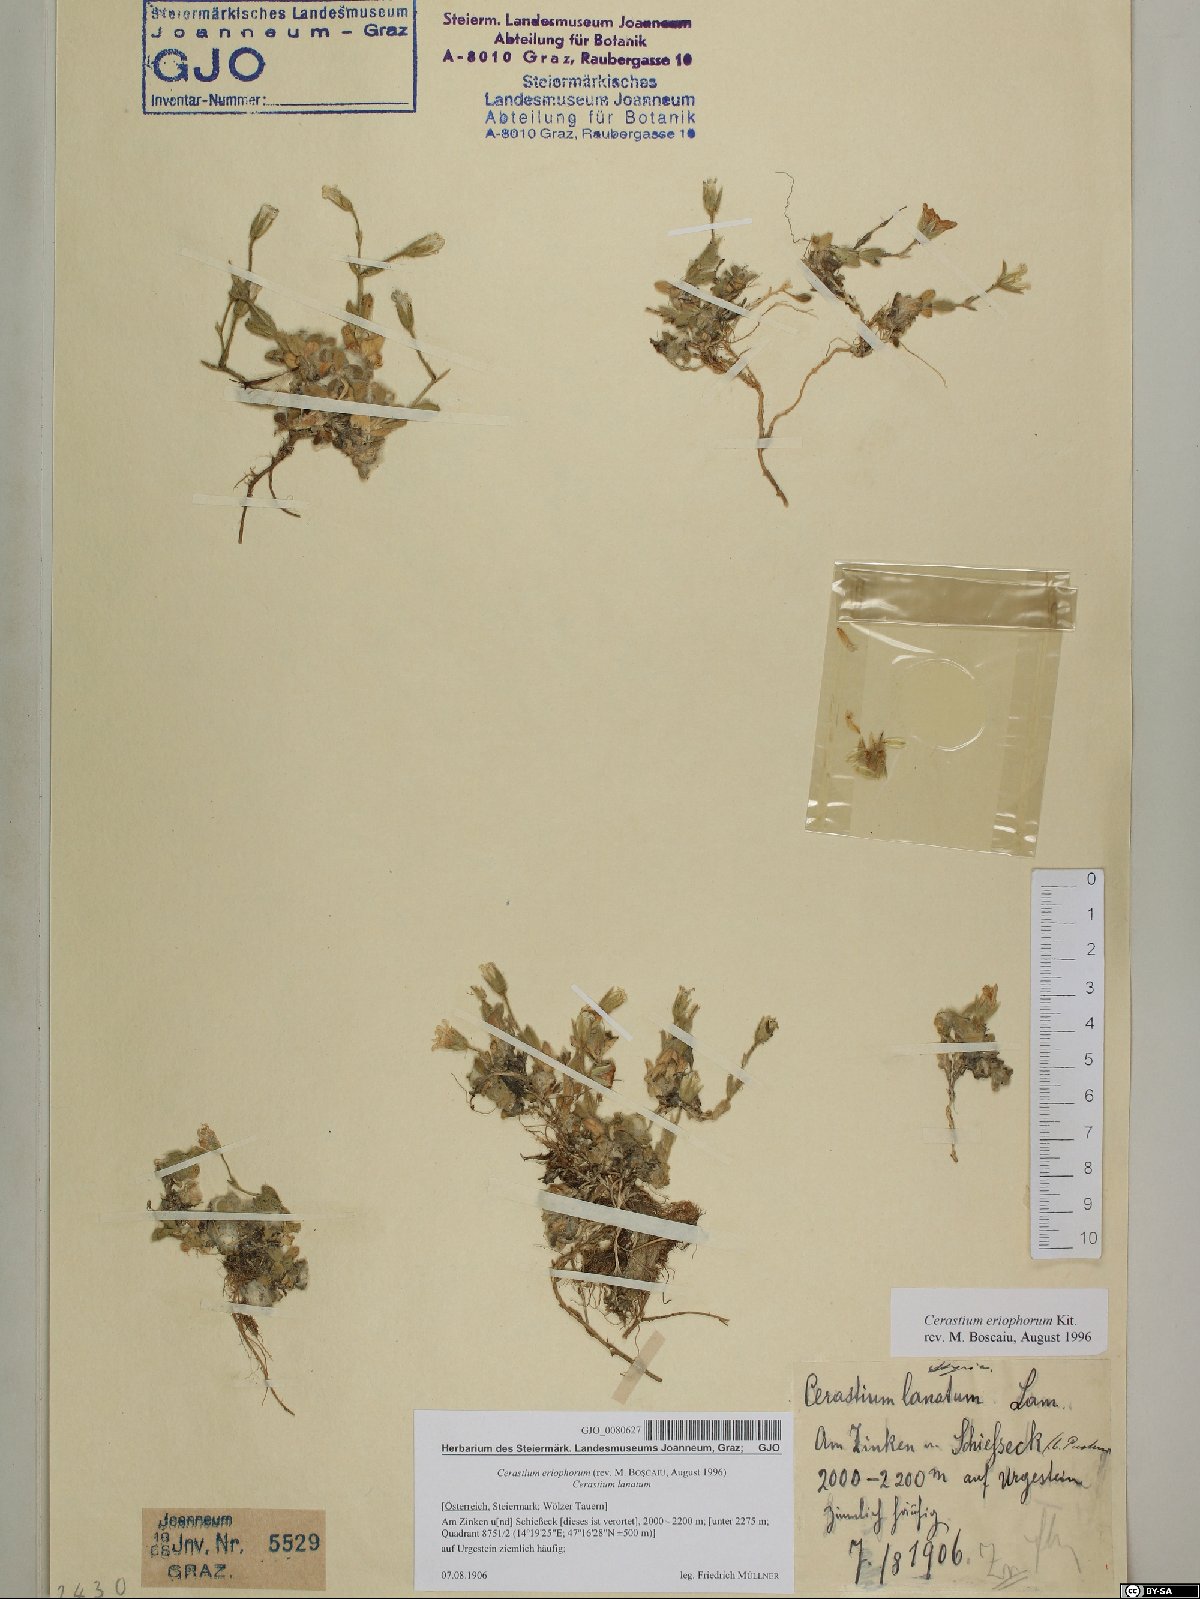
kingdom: Plantae
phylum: Tracheophyta
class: Magnoliopsida
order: Caryophyllales
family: Caryophyllaceae
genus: Cerastium
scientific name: Cerastium eriophorum
